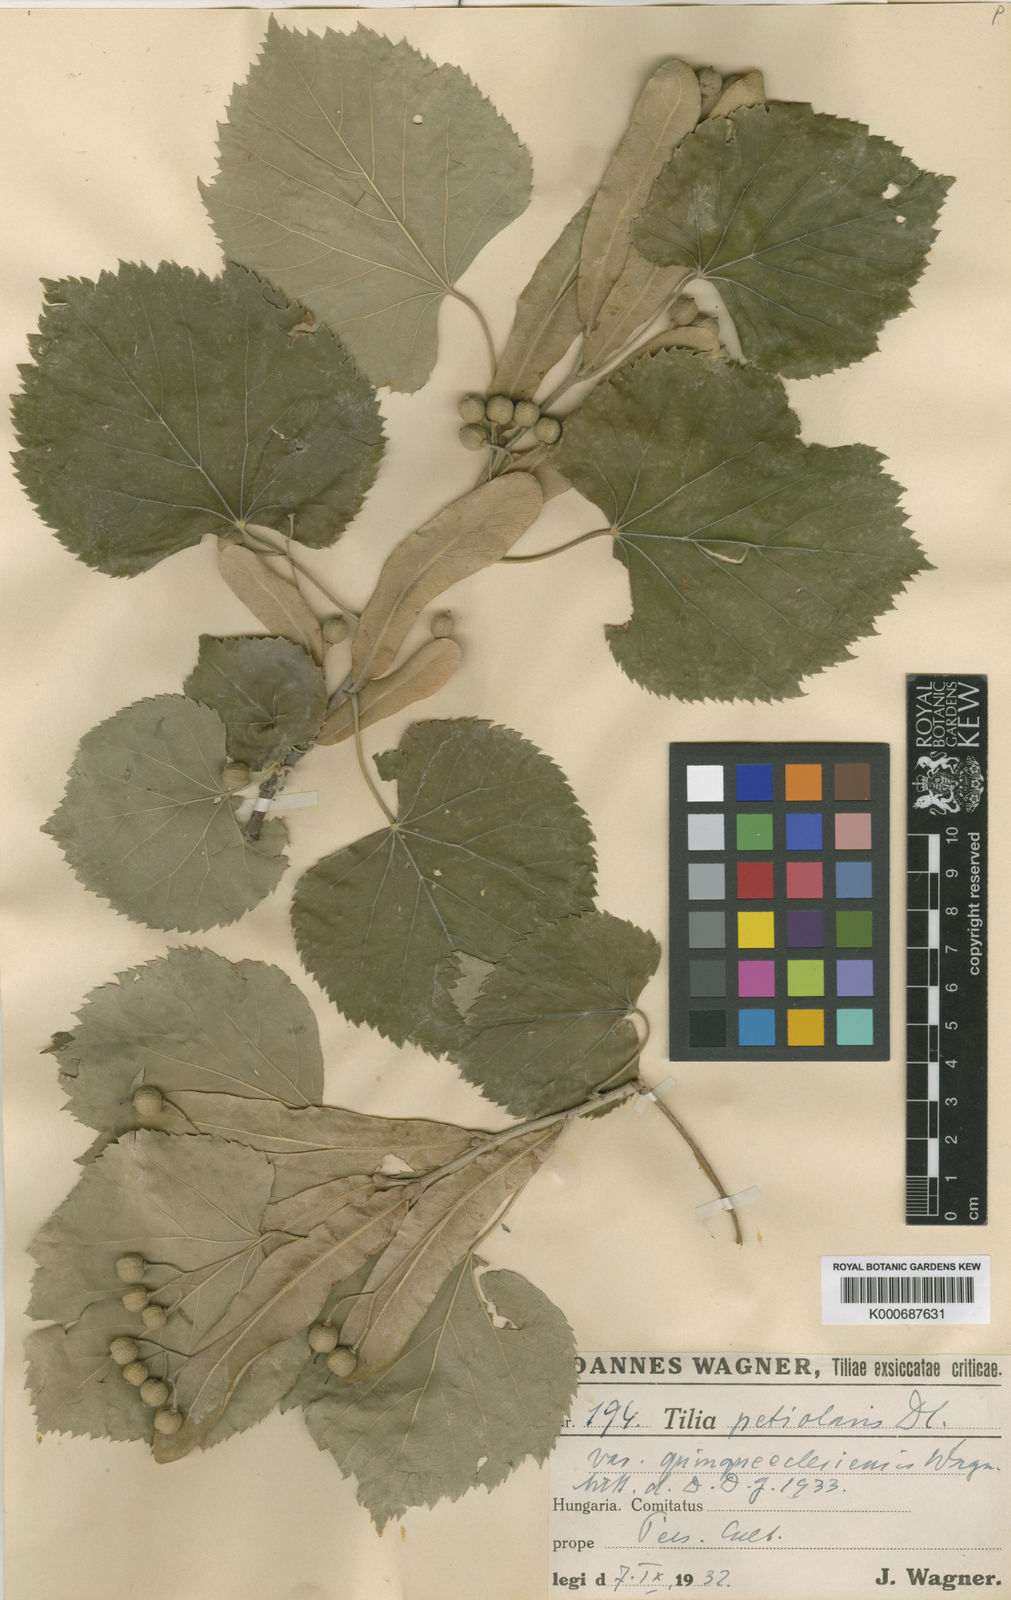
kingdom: Plantae
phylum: Tracheophyta
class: Magnoliopsida
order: Malvales
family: Malvaceae
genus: Tilia
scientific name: Tilia tomentosa
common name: Silver lime
